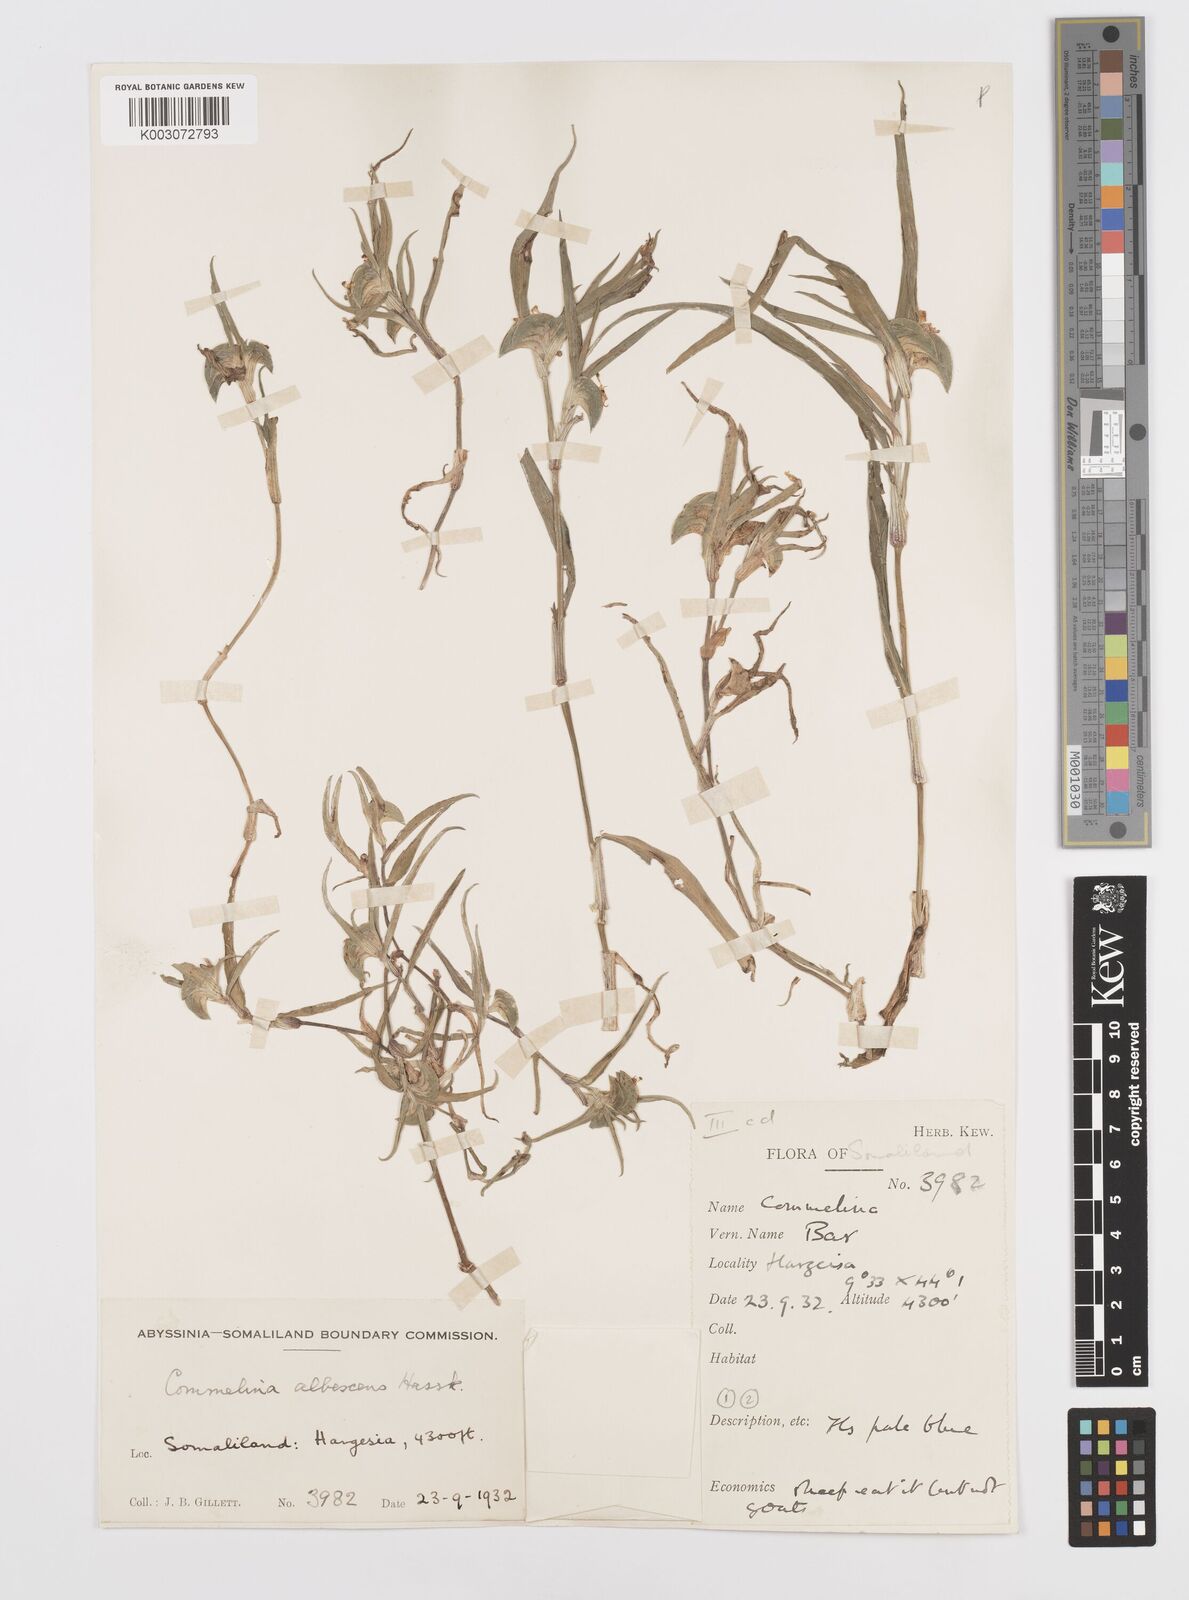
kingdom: Plantae
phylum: Tracheophyta
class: Liliopsida
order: Commelinales
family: Commelinaceae
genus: Commelina
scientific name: Commelina albescens
